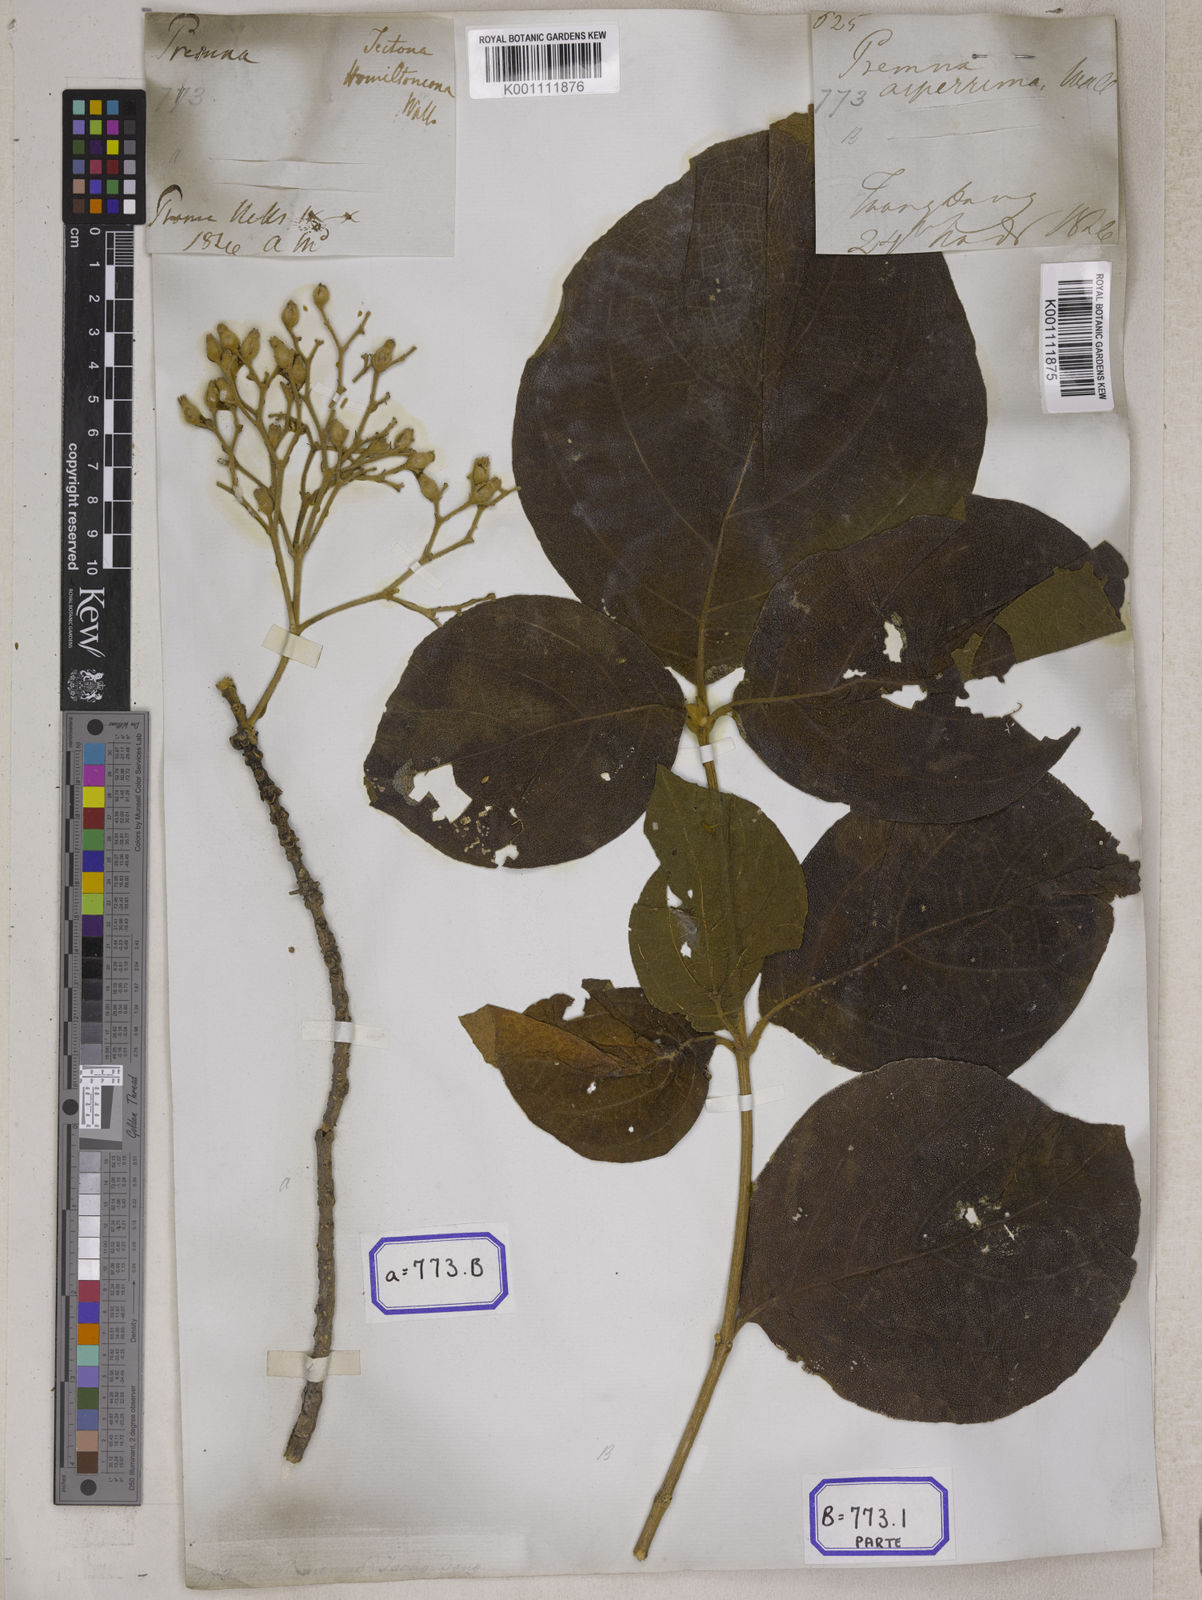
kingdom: Plantae
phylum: Tracheophyta
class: Magnoliopsida
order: Lamiales
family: Lamiaceae
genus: Tectona
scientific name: Tectona hamiltoniana
